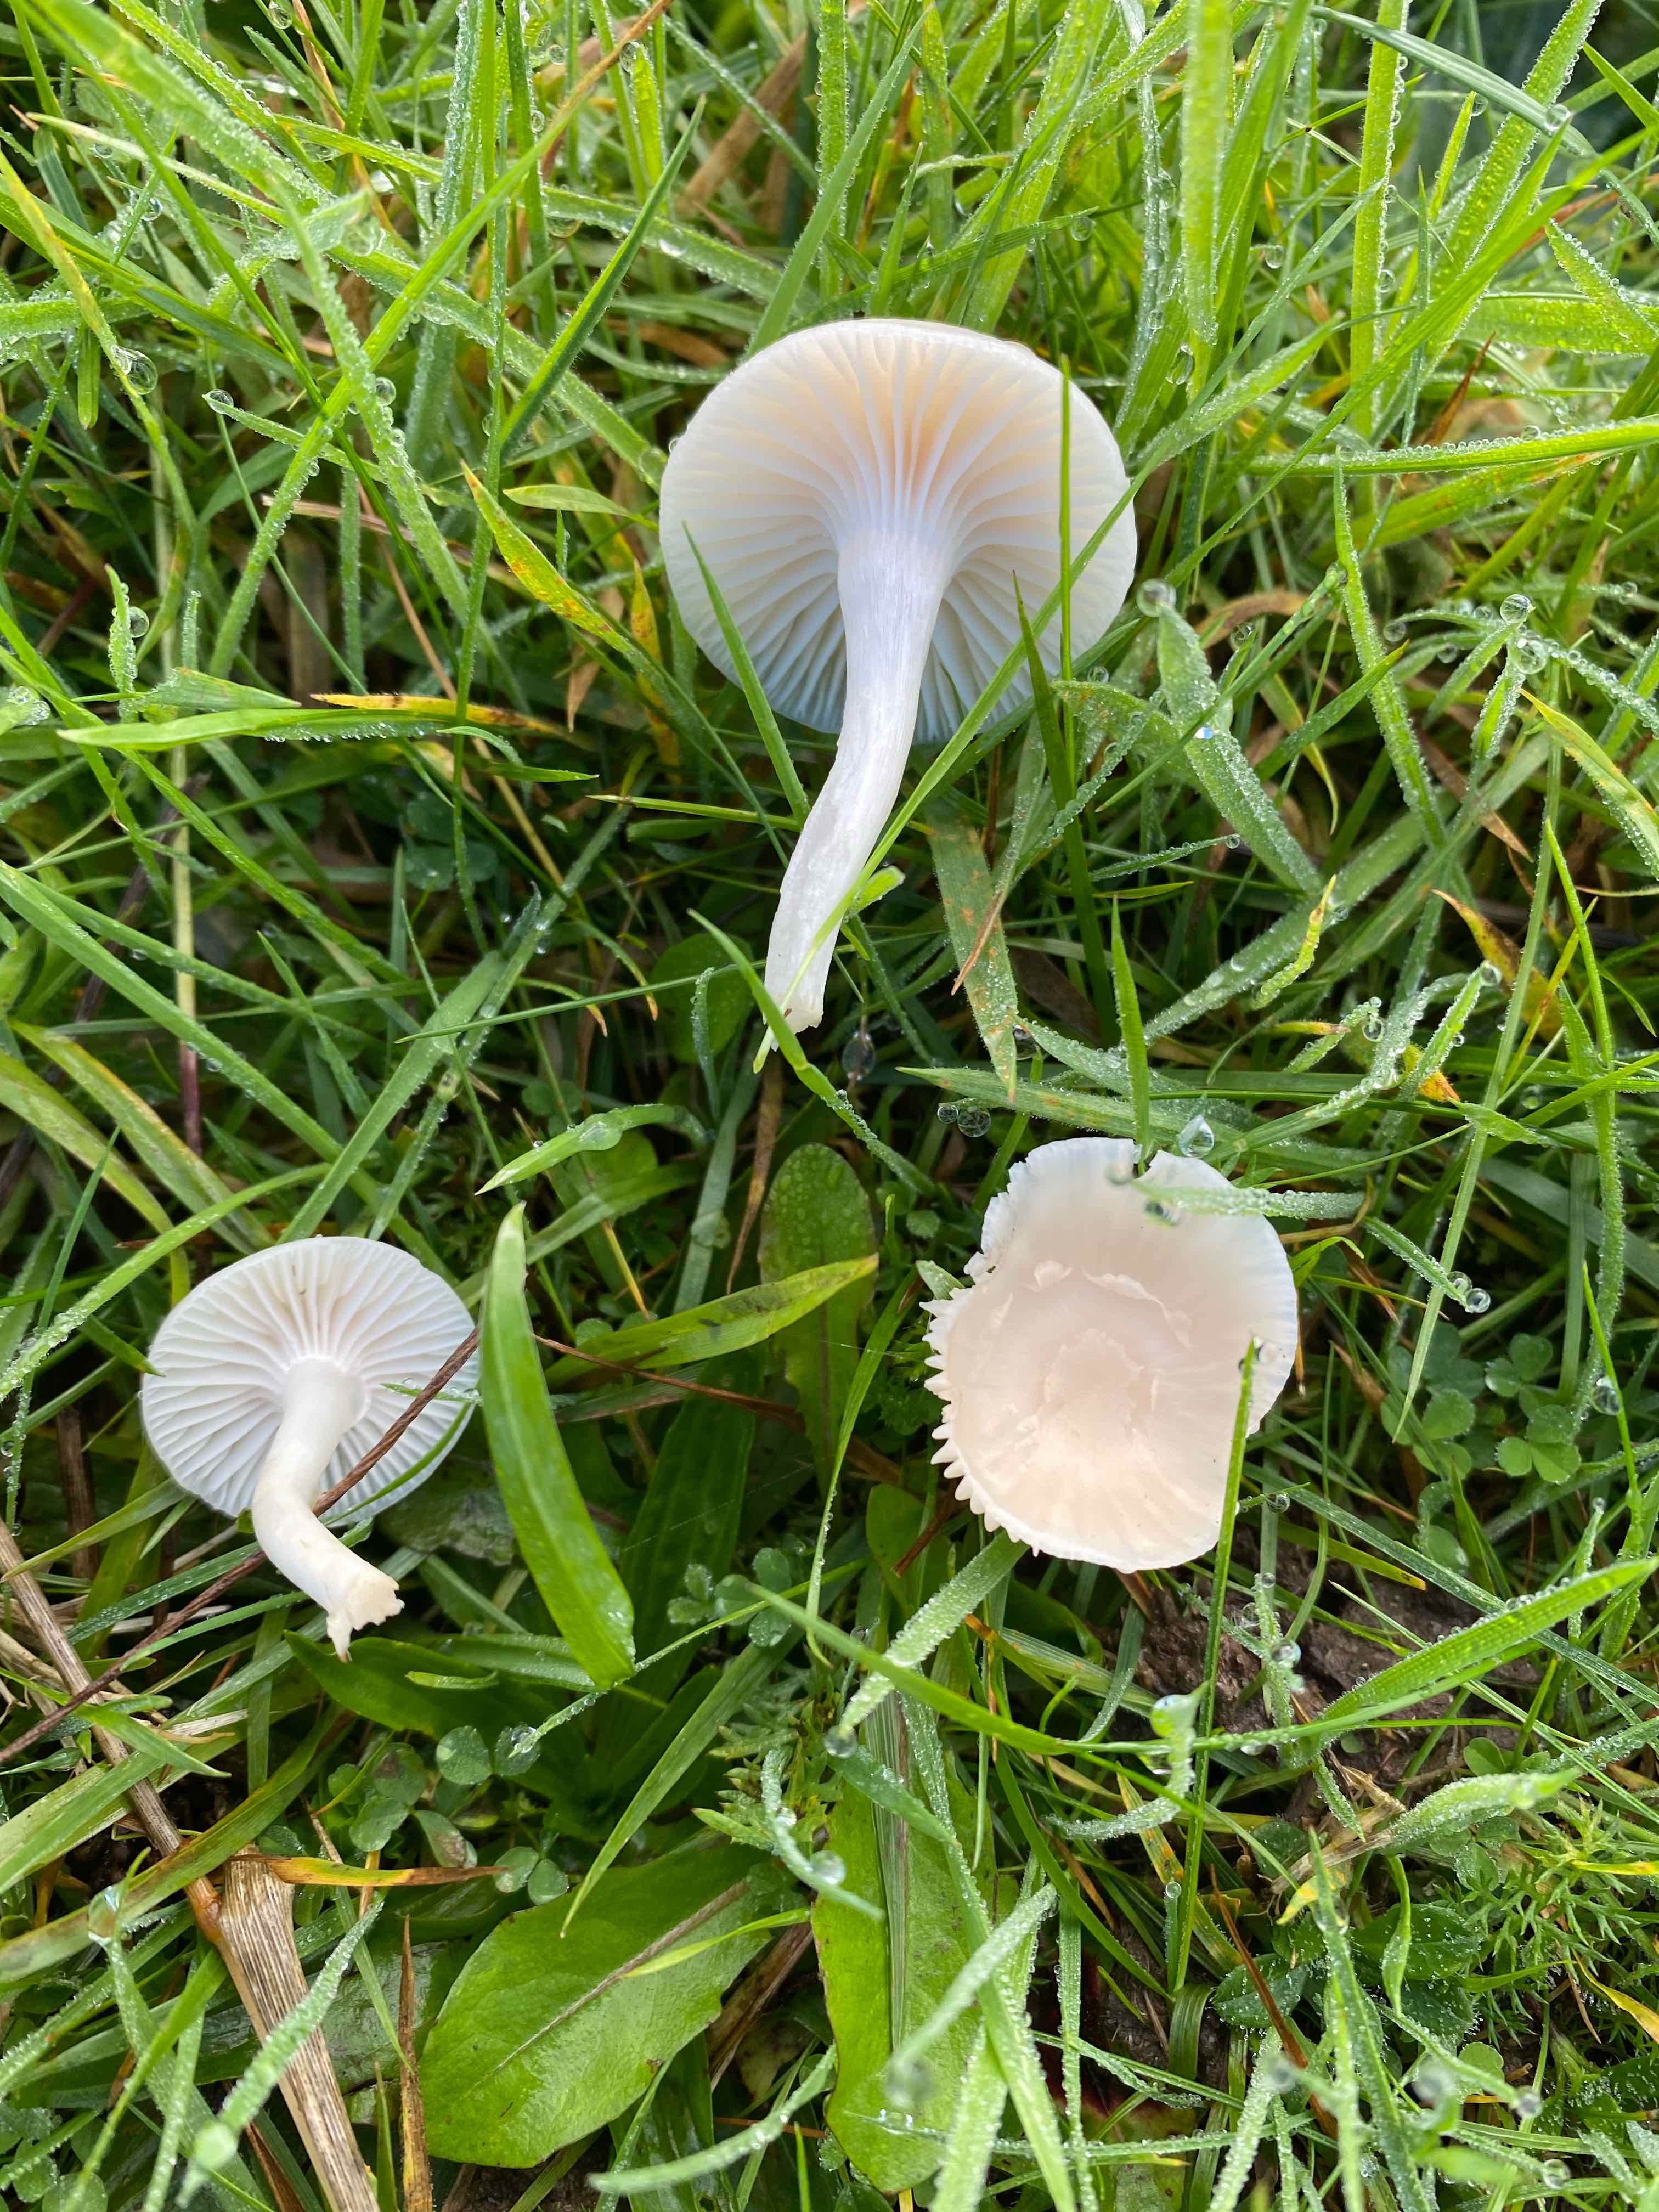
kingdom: Fungi
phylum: Basidiomycota
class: Agaricomycetes
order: Agaricales
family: Hygrophoraceae
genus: Cuphophyllus
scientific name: Cuphophyllus virgineus
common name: snehvid vokshat
